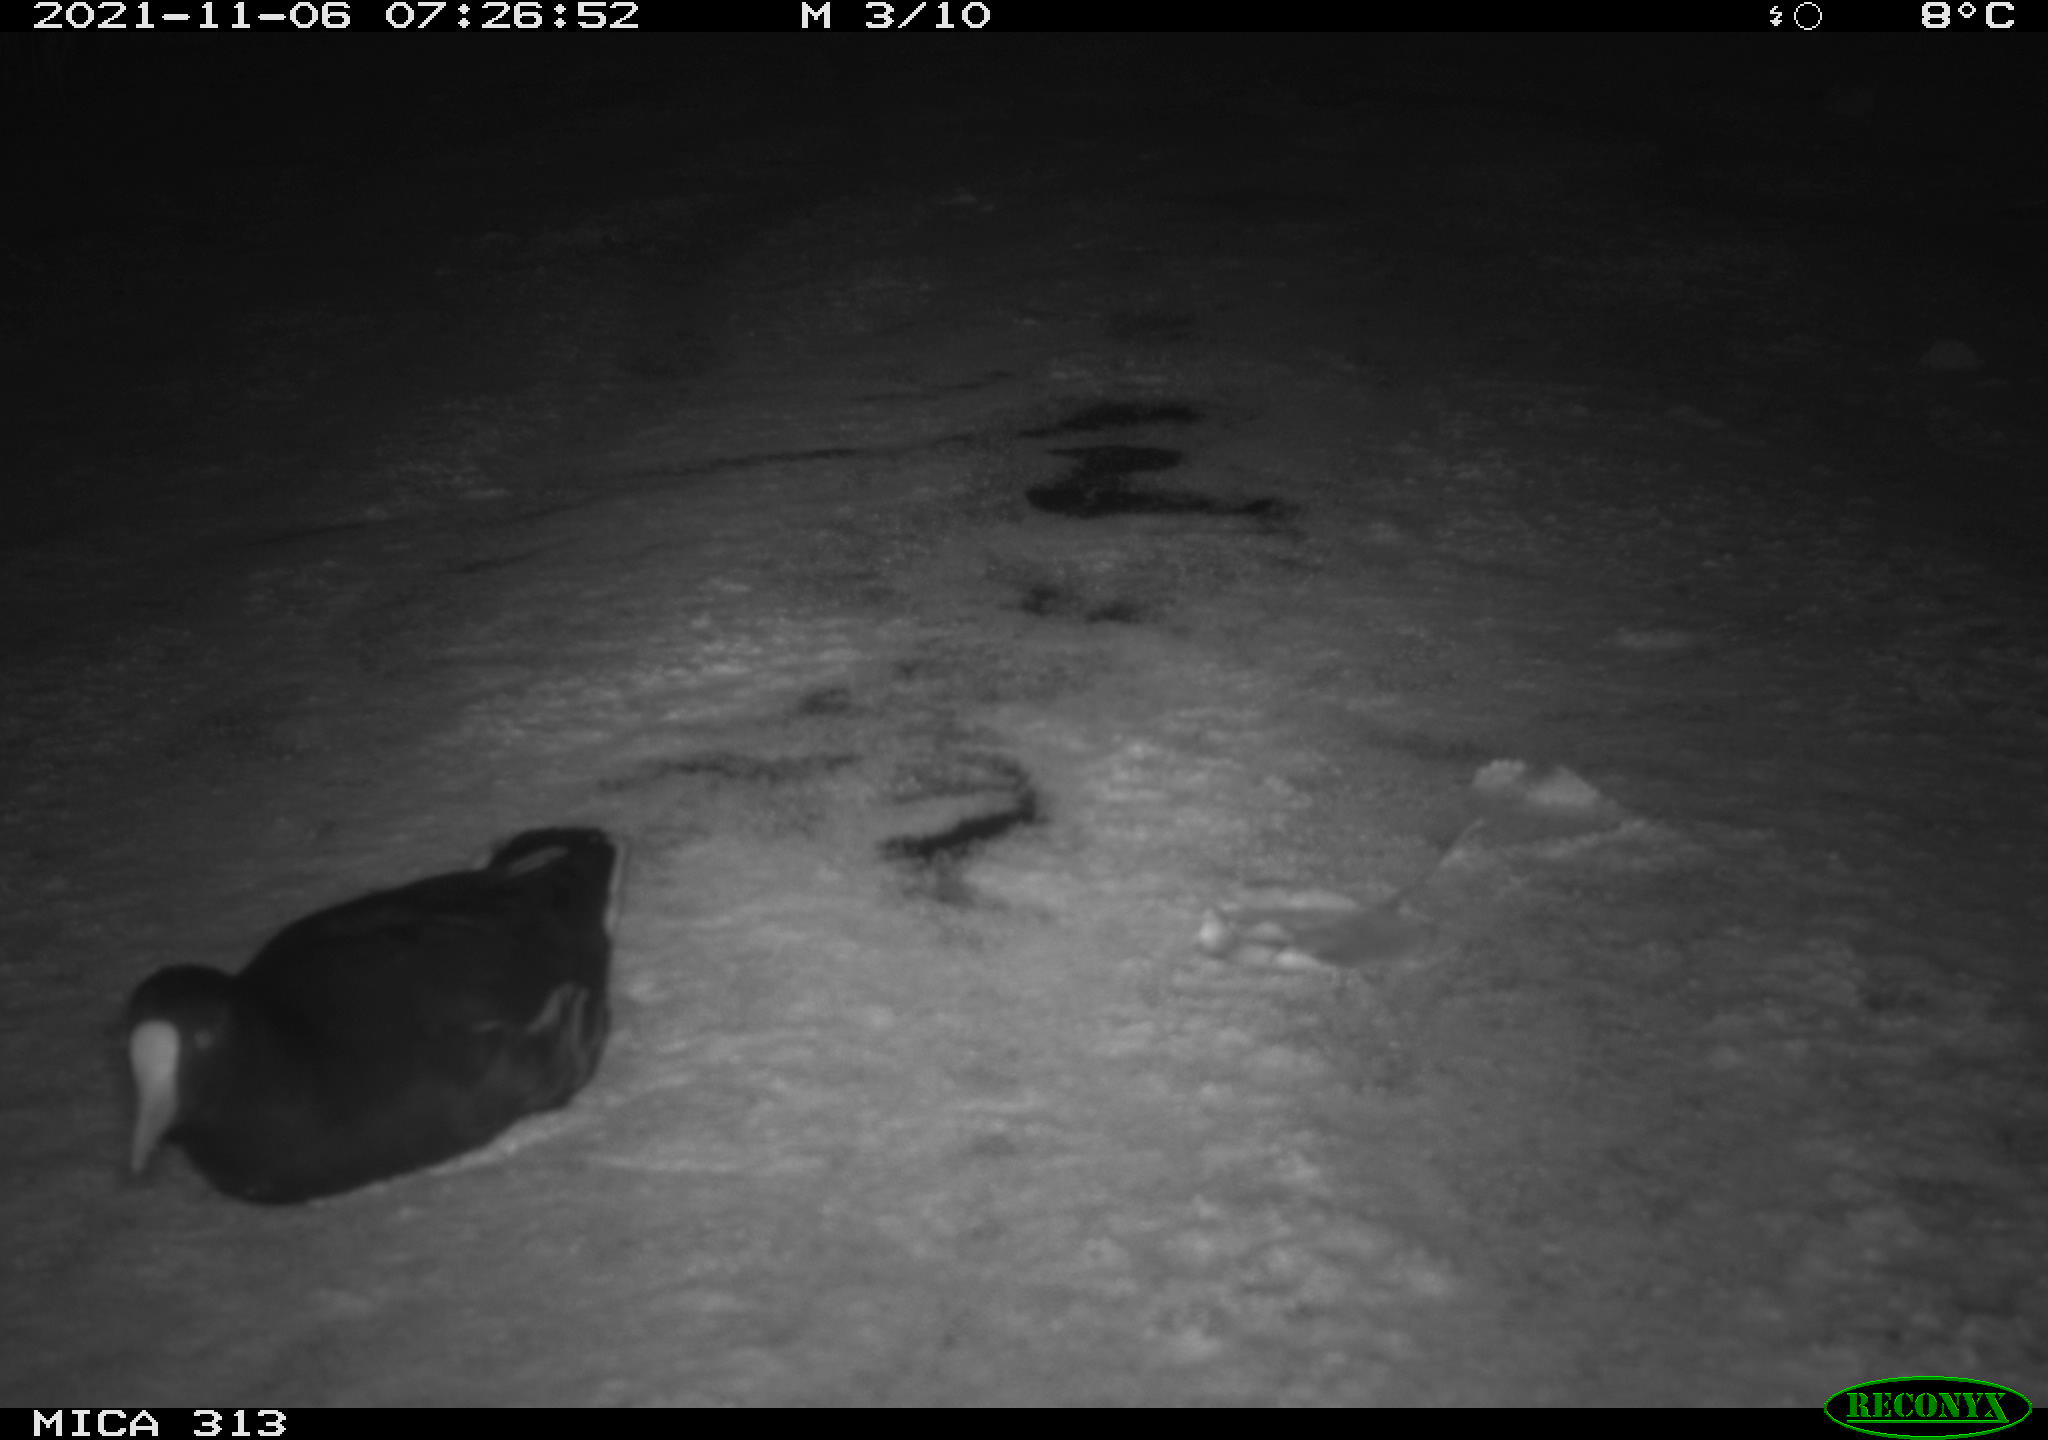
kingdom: Animalia
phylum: Chordata
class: Aves
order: Gruiformes
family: Rallidae
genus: Gallinula
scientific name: Gallinula chloropus
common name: Common moorhen
